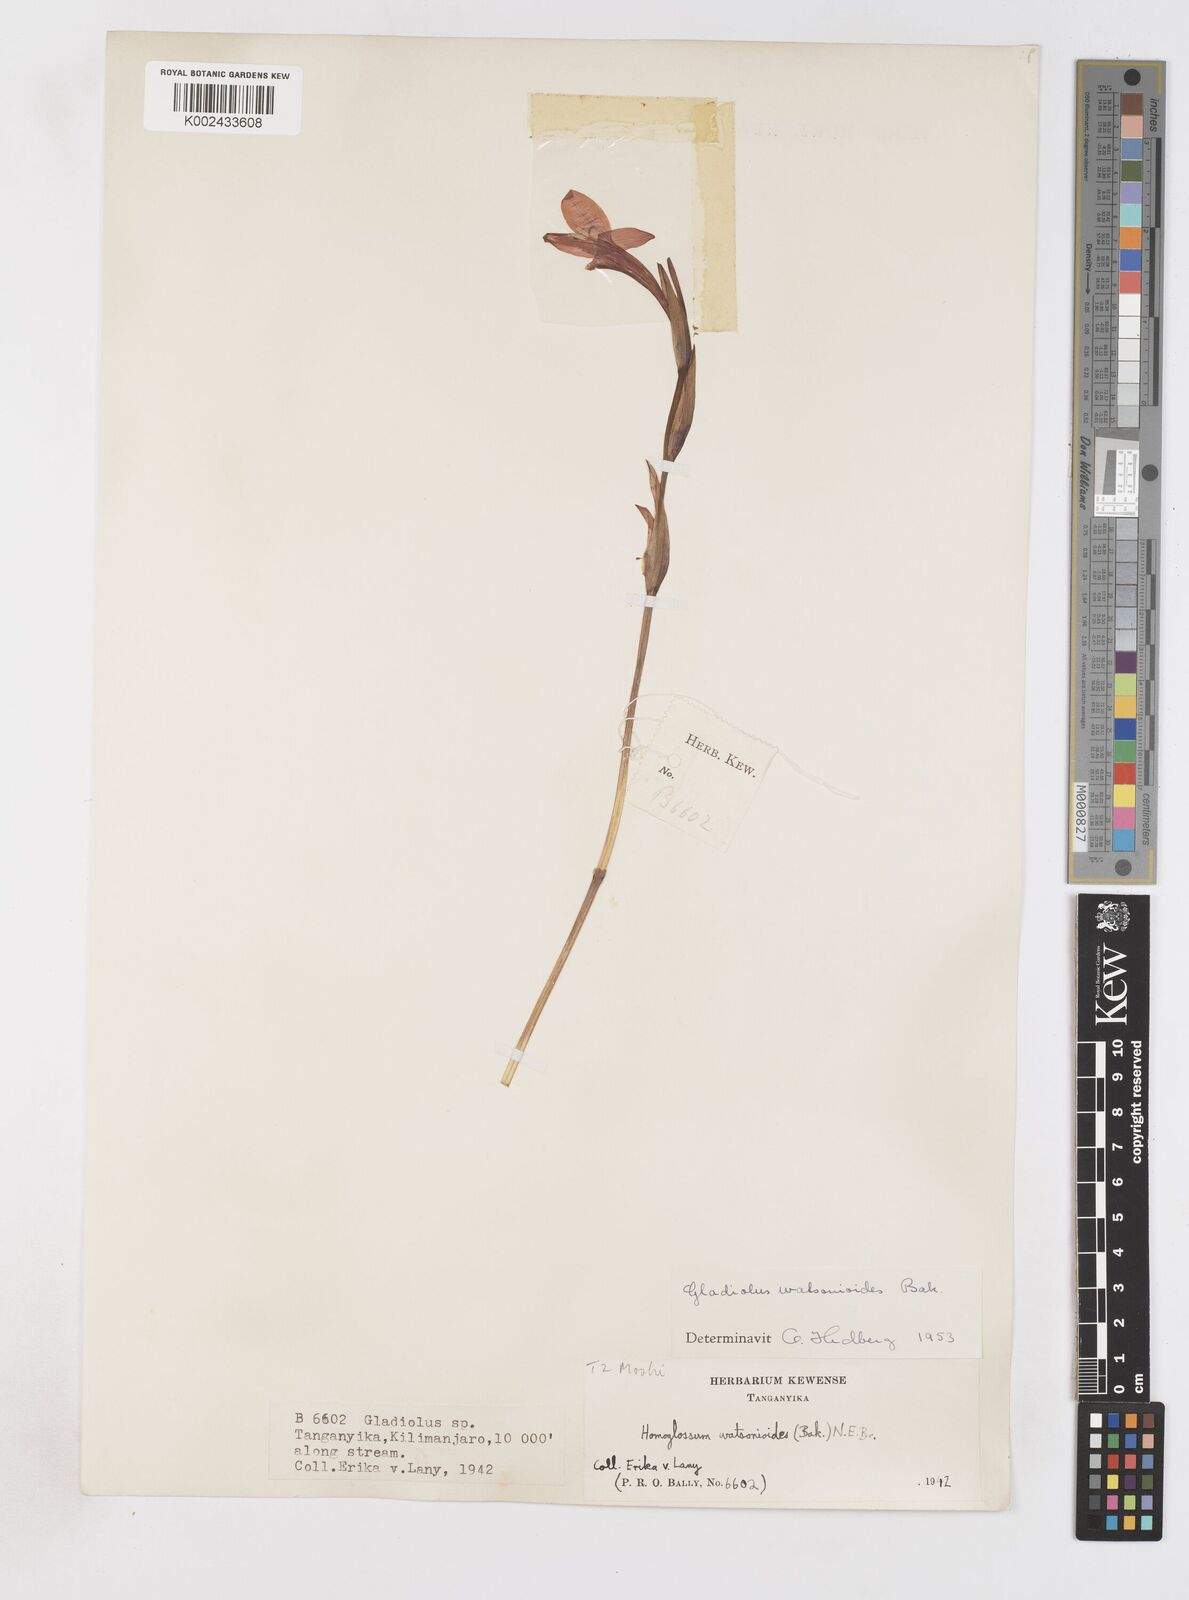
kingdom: Plantae
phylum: Tracheophyta
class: Liliopsida
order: Asparagales
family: Iridaceae
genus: Gladiolus
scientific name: Gladiolus watsonioides
